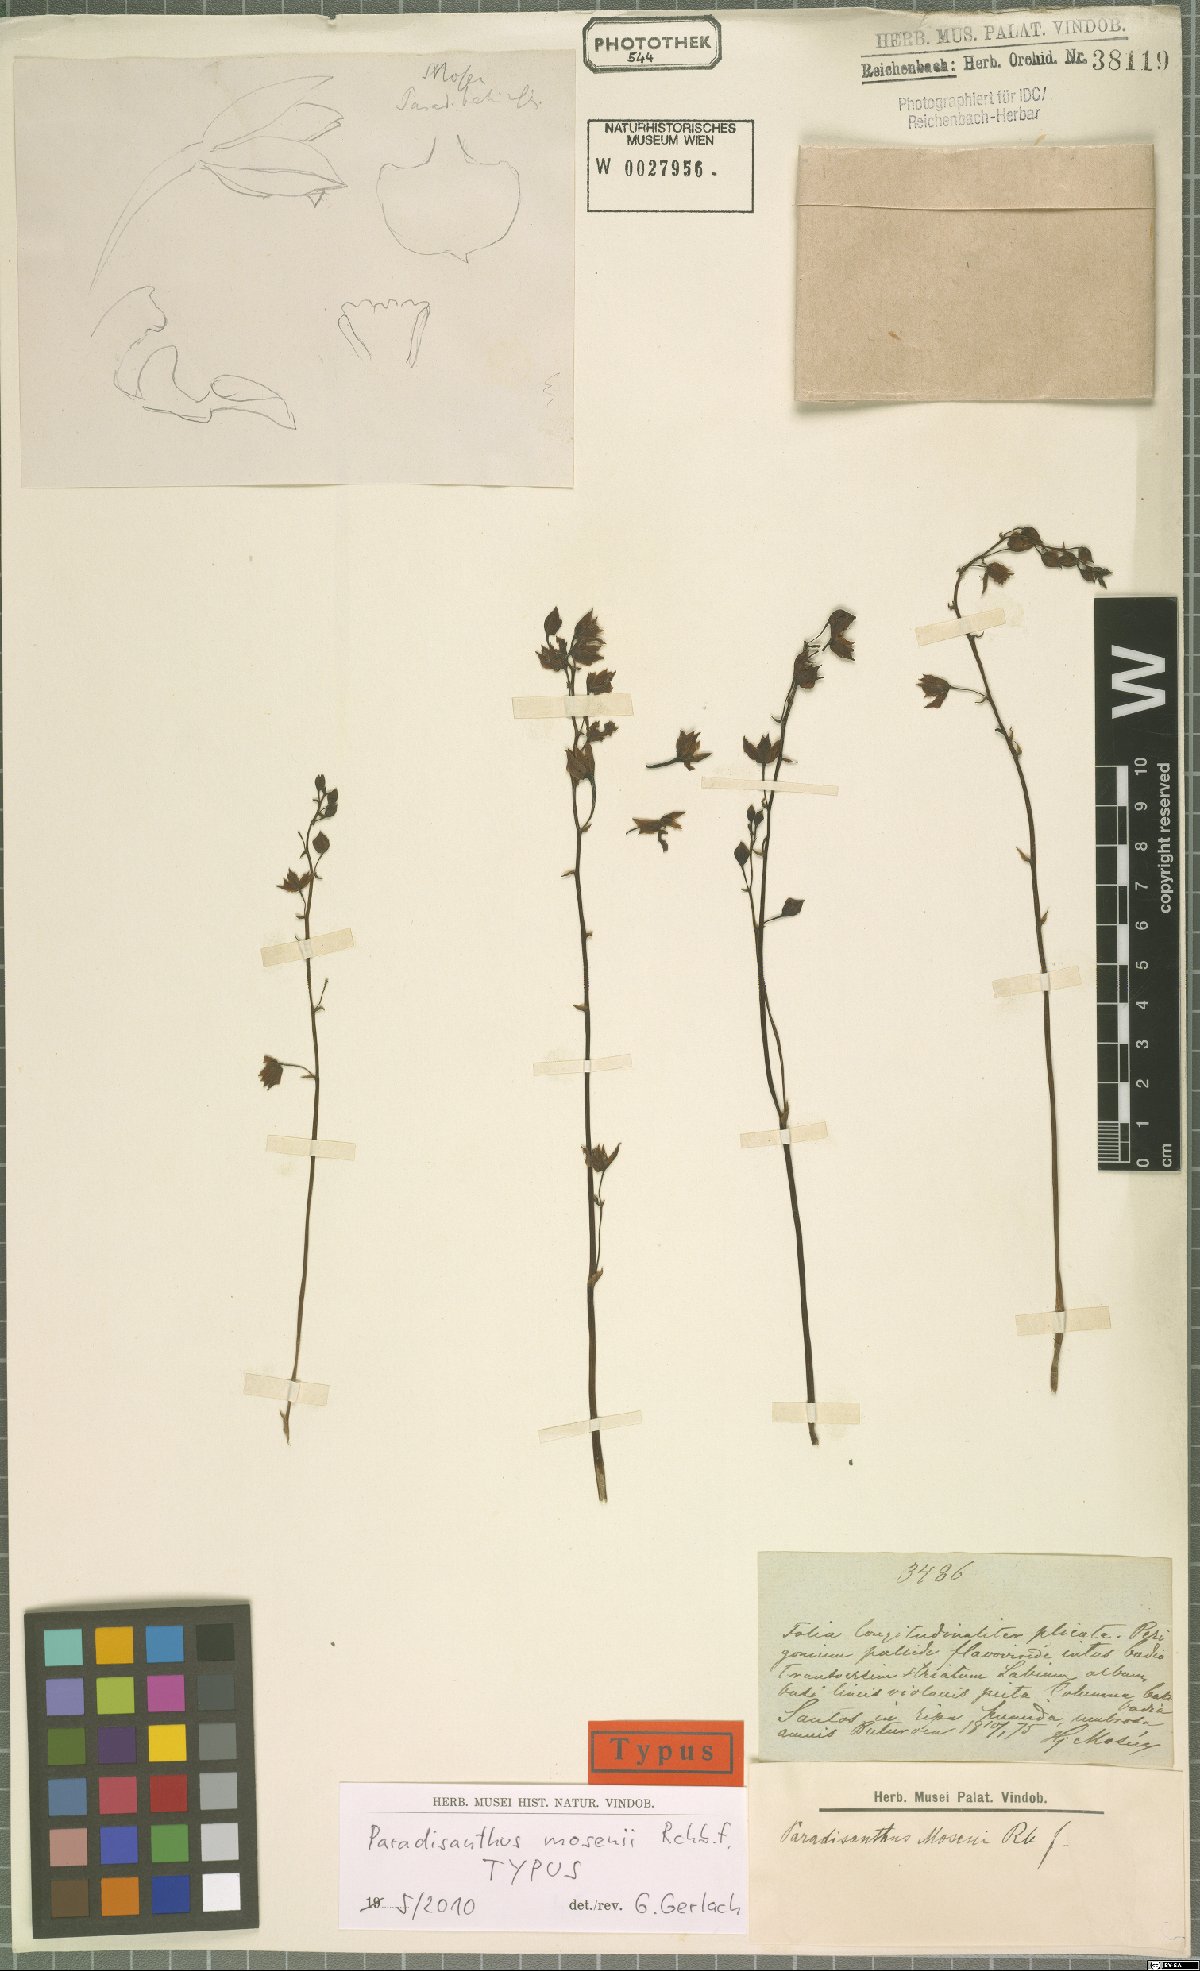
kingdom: Plantae
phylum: Tracheophyta
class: Liliopsida
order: Asparagales
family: Orchidaceae
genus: Paradisanthus
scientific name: Paradisanthus bahiensis
